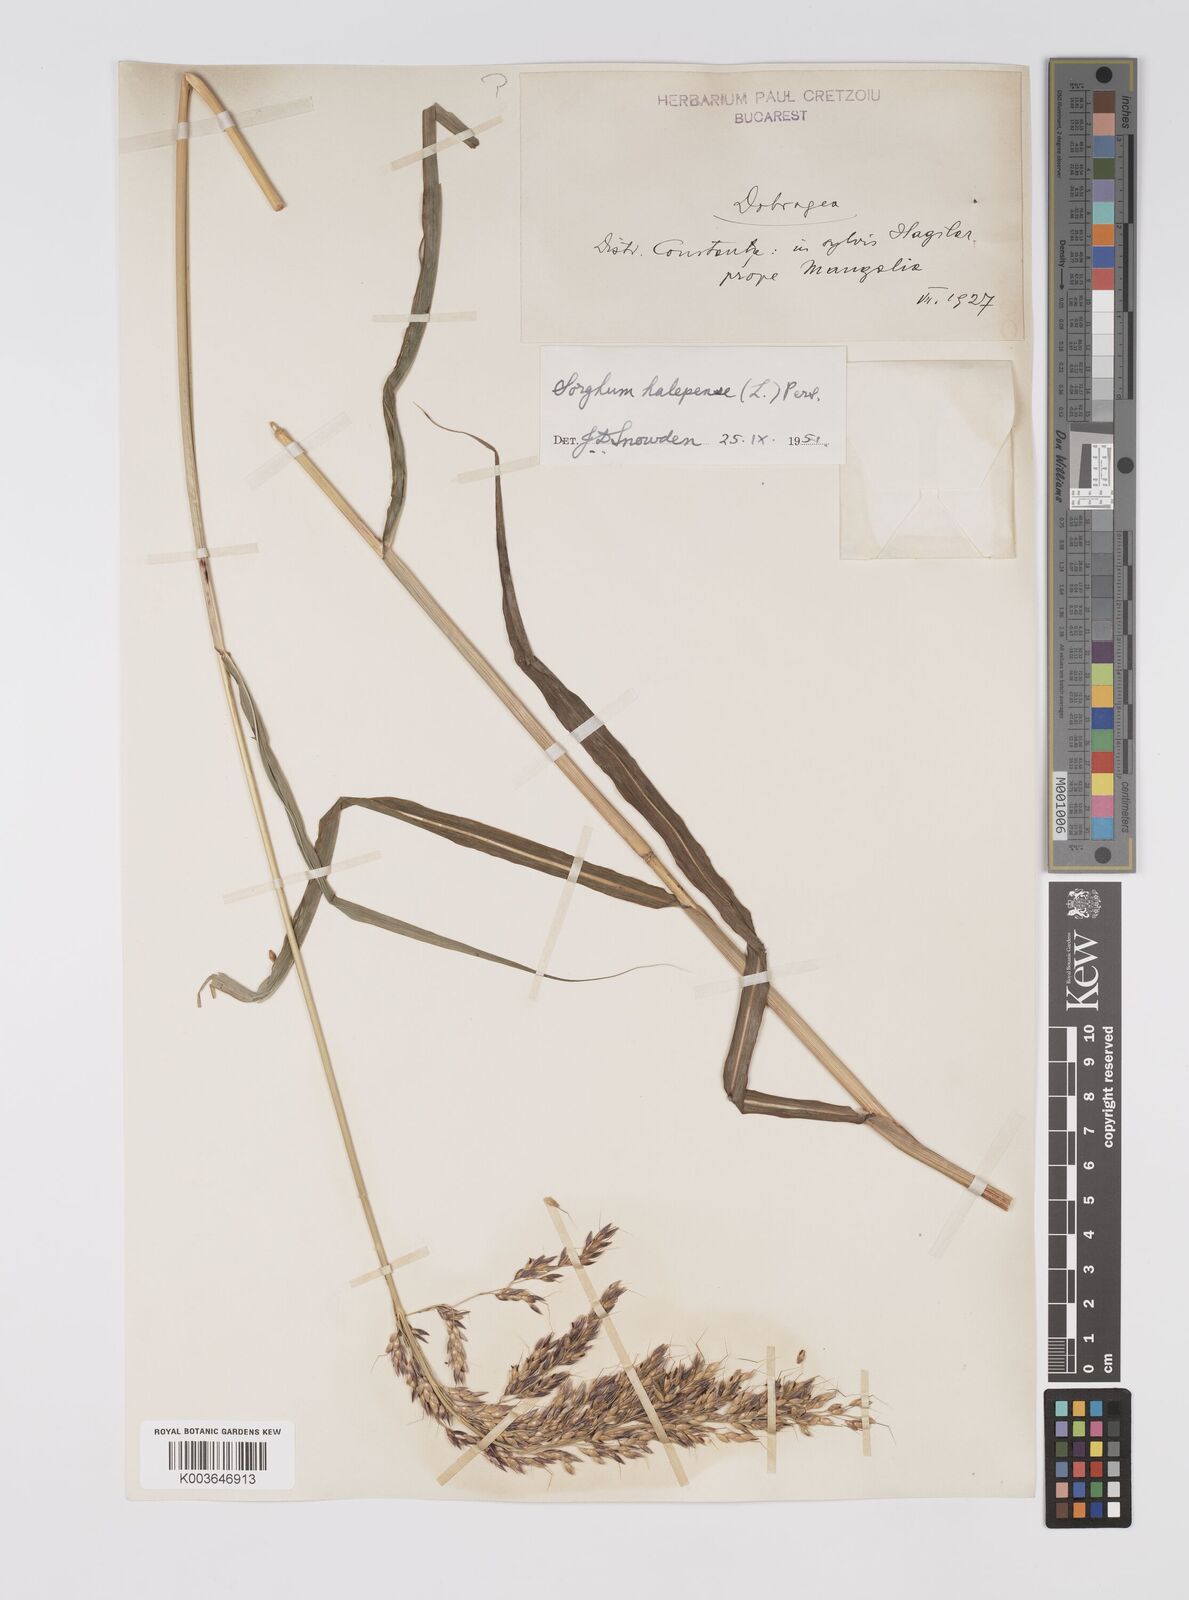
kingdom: Plantae
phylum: Tracheophyta
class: Liliopsida
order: Poales
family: Poaceae
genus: Sorghum
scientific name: Sorghum halepense
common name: Johnson-grass
